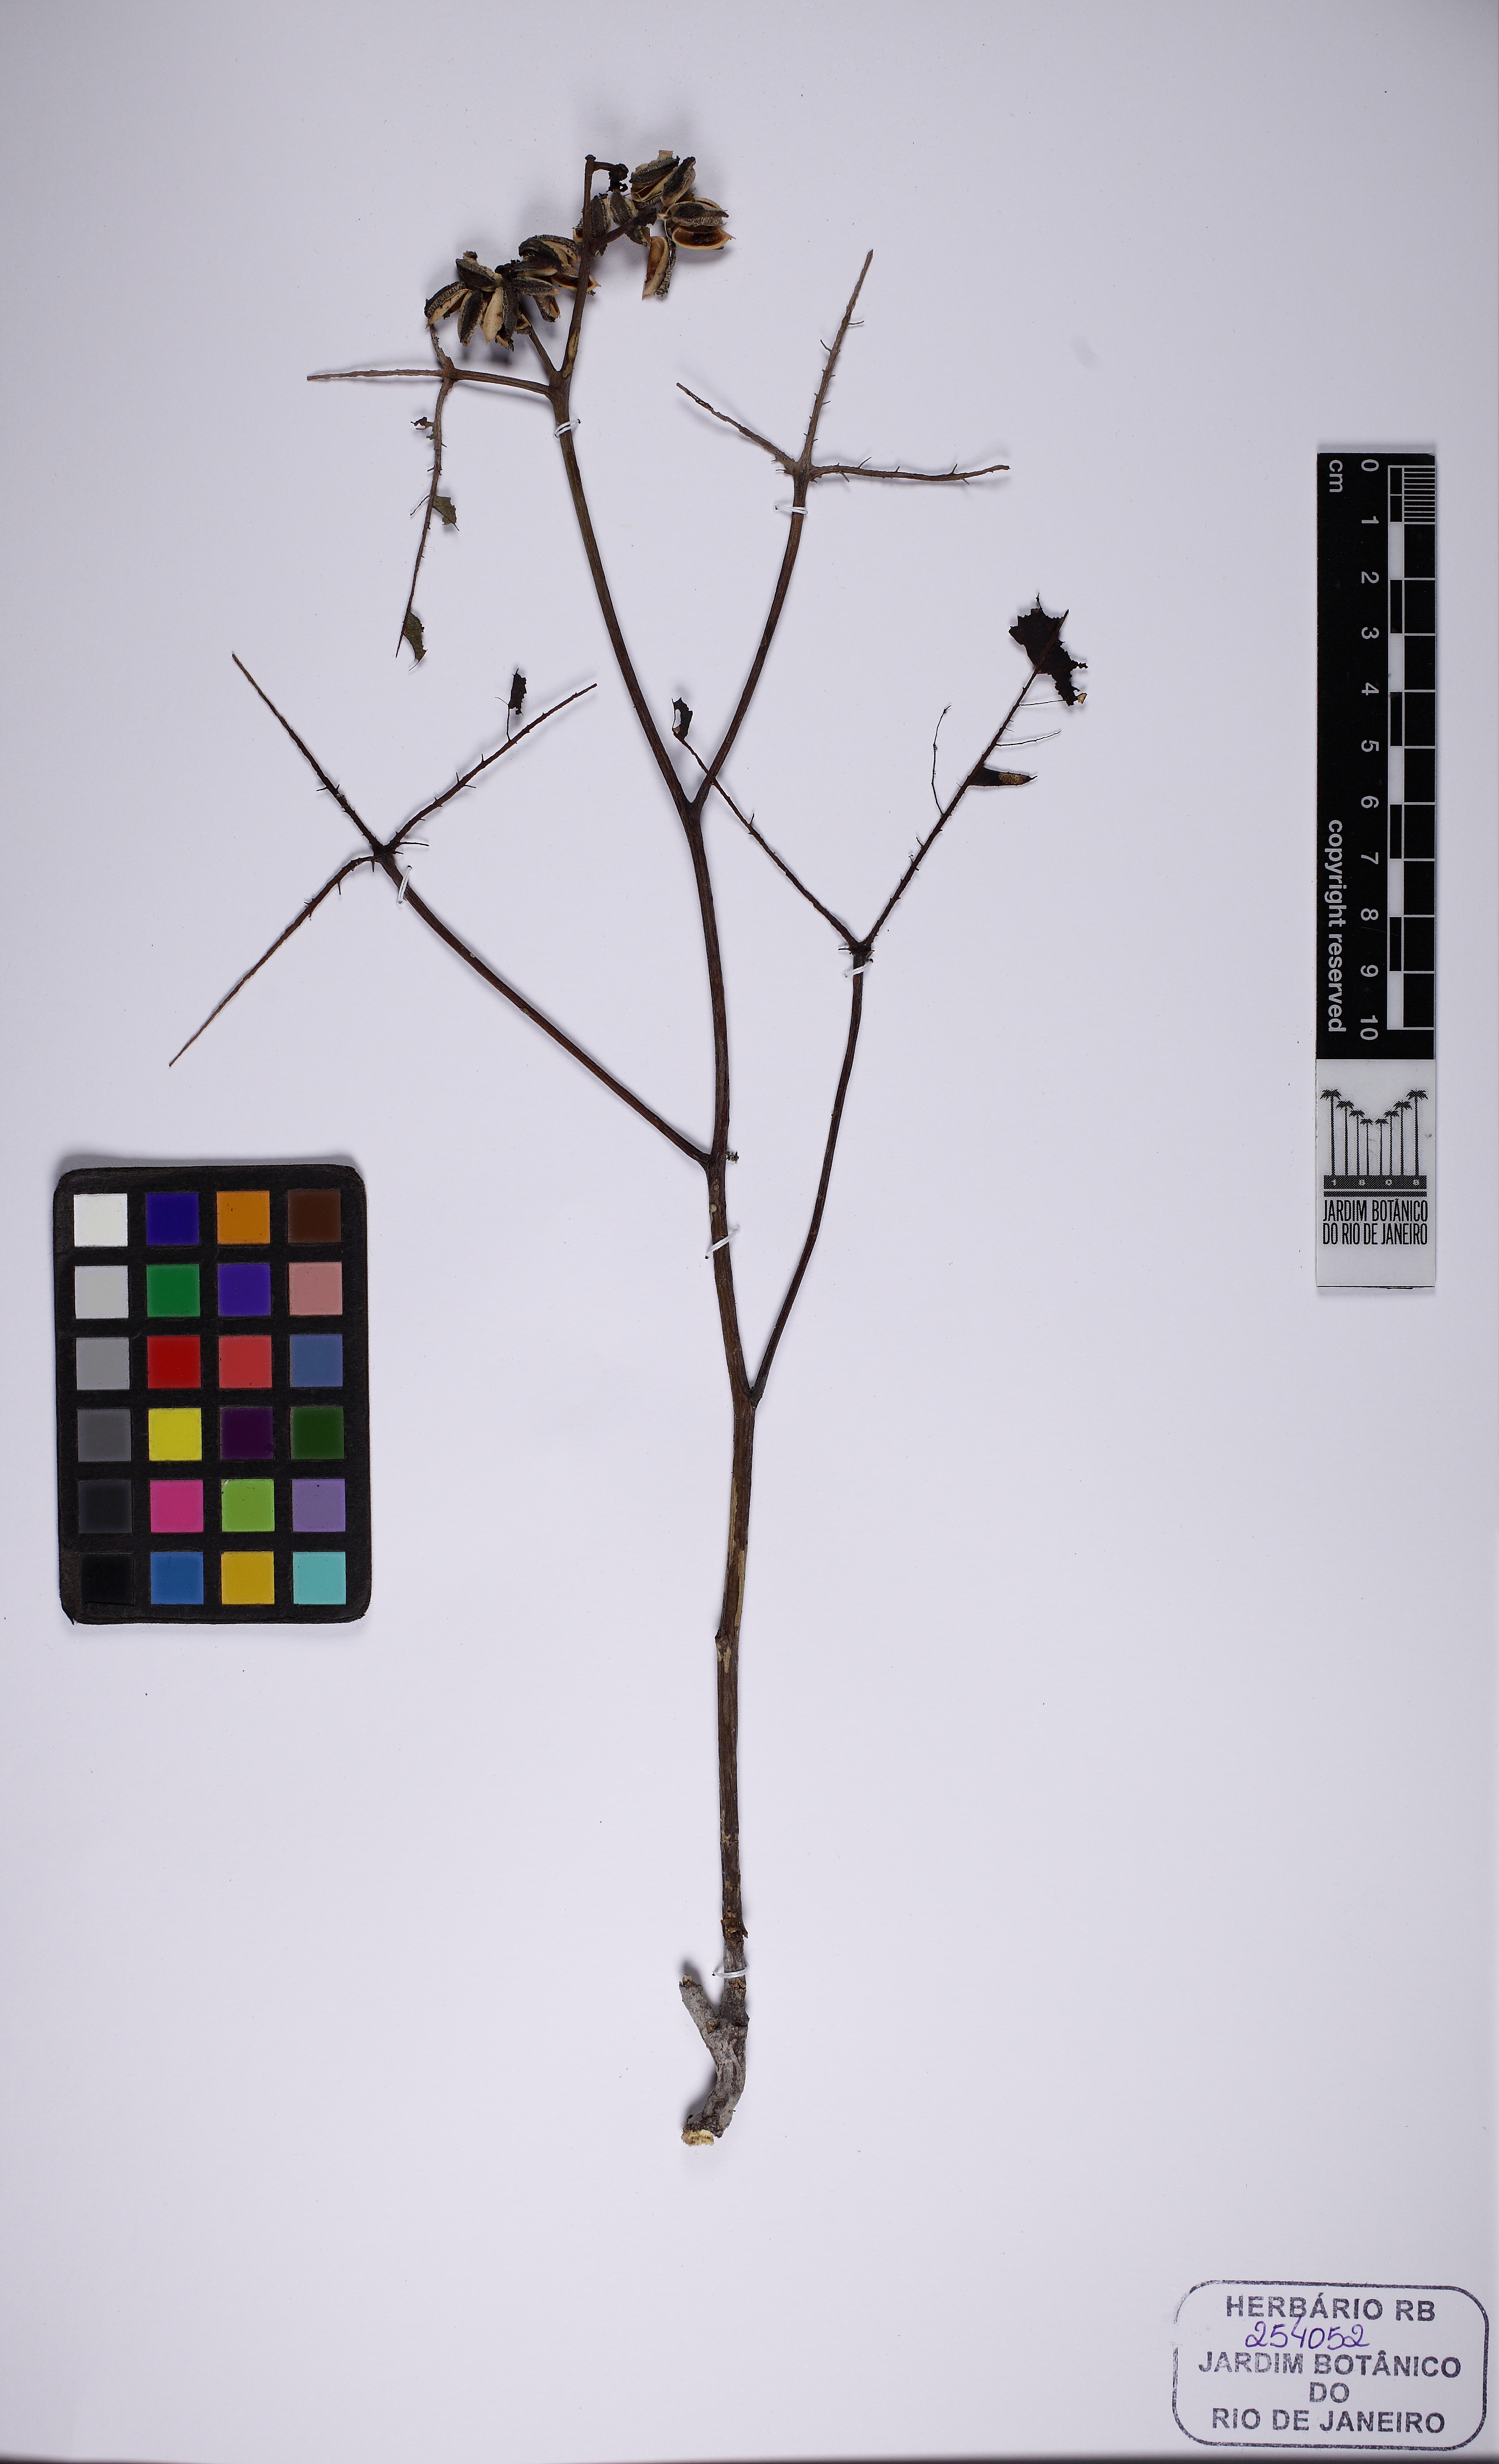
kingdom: Plantae
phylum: Tracheophyta
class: Magnoliopsida
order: Malpighiales
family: Euphorbiaceae
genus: Manihot
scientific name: Manihot sparsifolia
